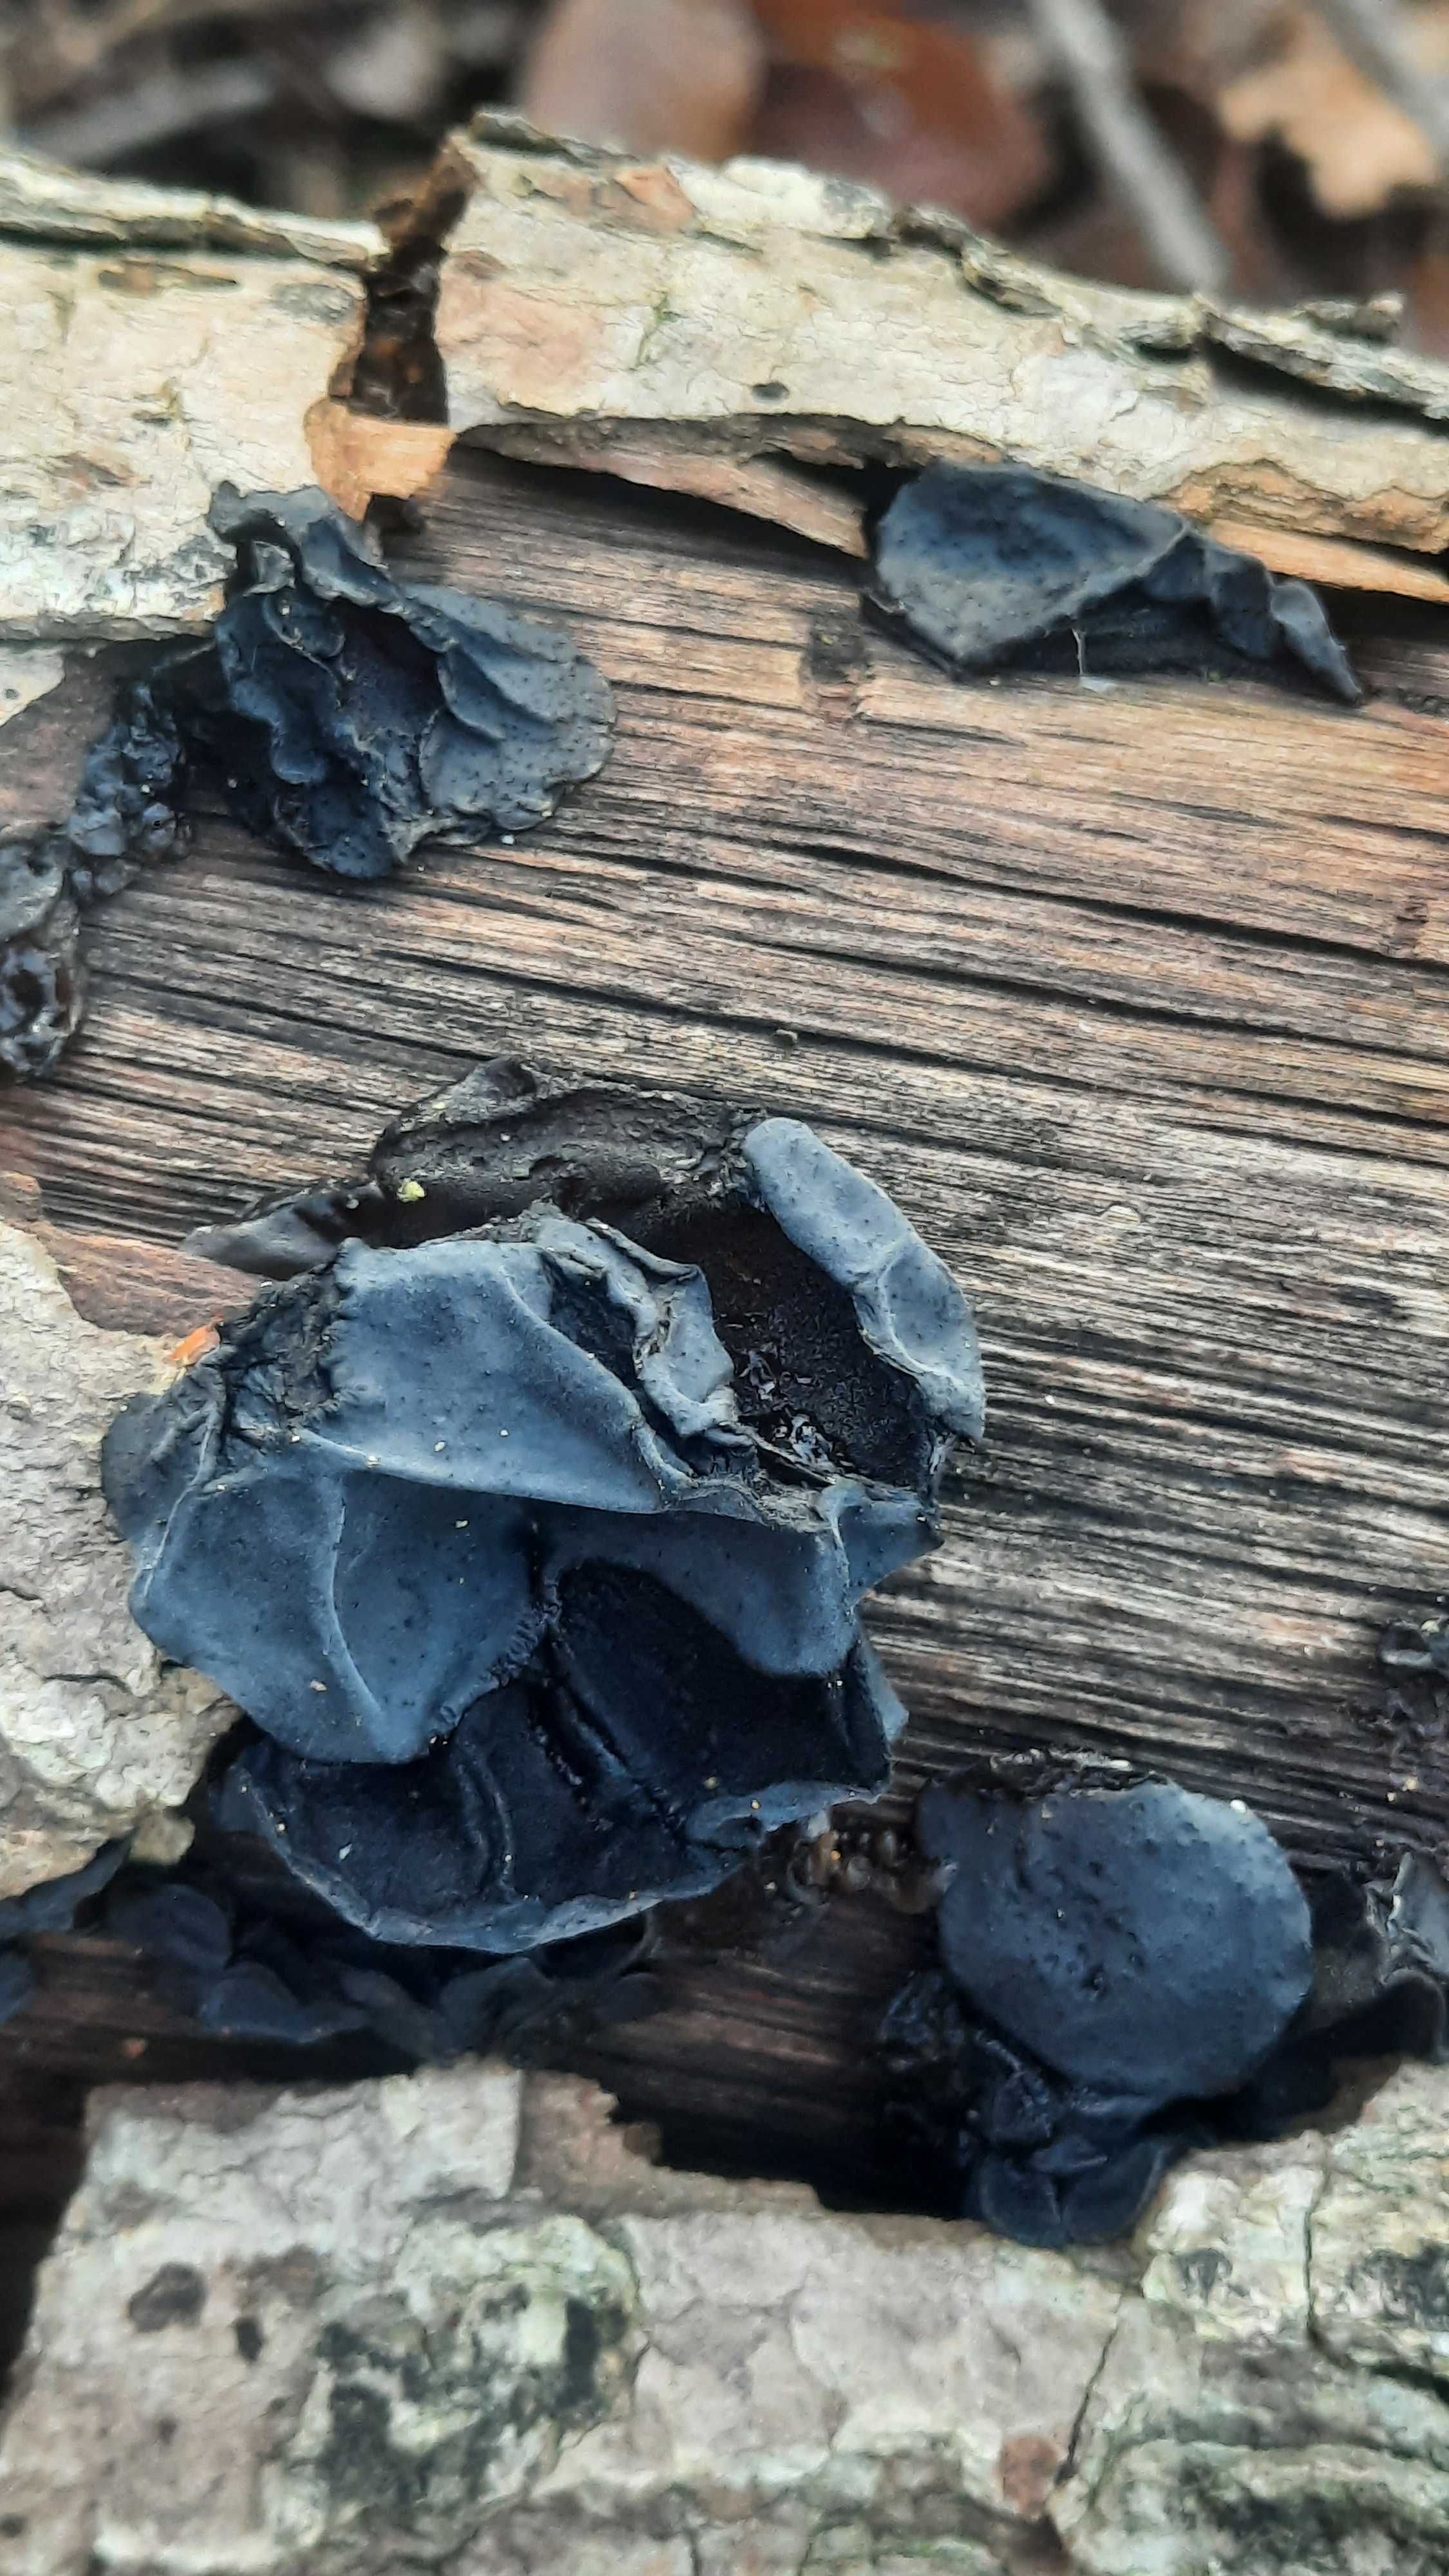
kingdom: Fungi
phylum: Basidiomycota
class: Agaricomycetes
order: Auriculariales
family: Auriculariaceae
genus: Exidia
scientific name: Exidia glandulosa
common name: ege-bævretop
